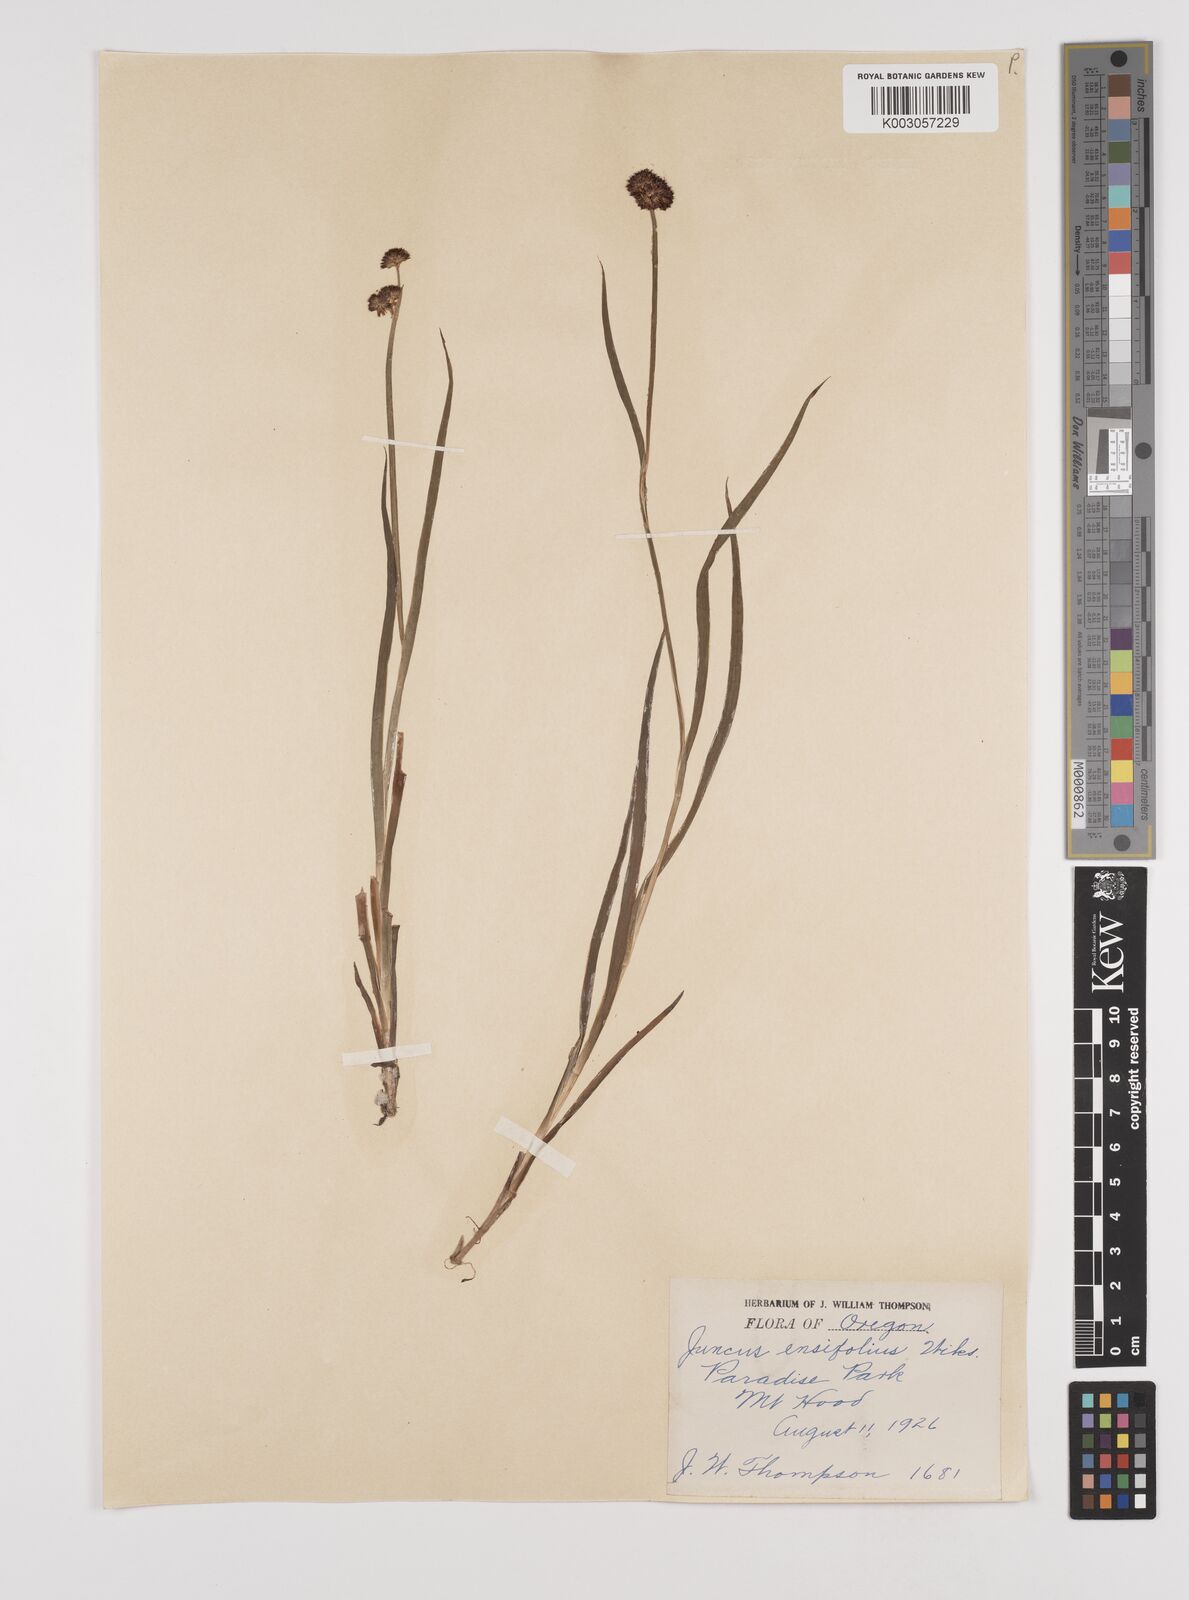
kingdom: Plantae
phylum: Tracheophyta
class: Liliopsida
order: Poales
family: Juncaceae
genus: Juncus
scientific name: Juncus ensifolius
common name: Sword-leaved rush
